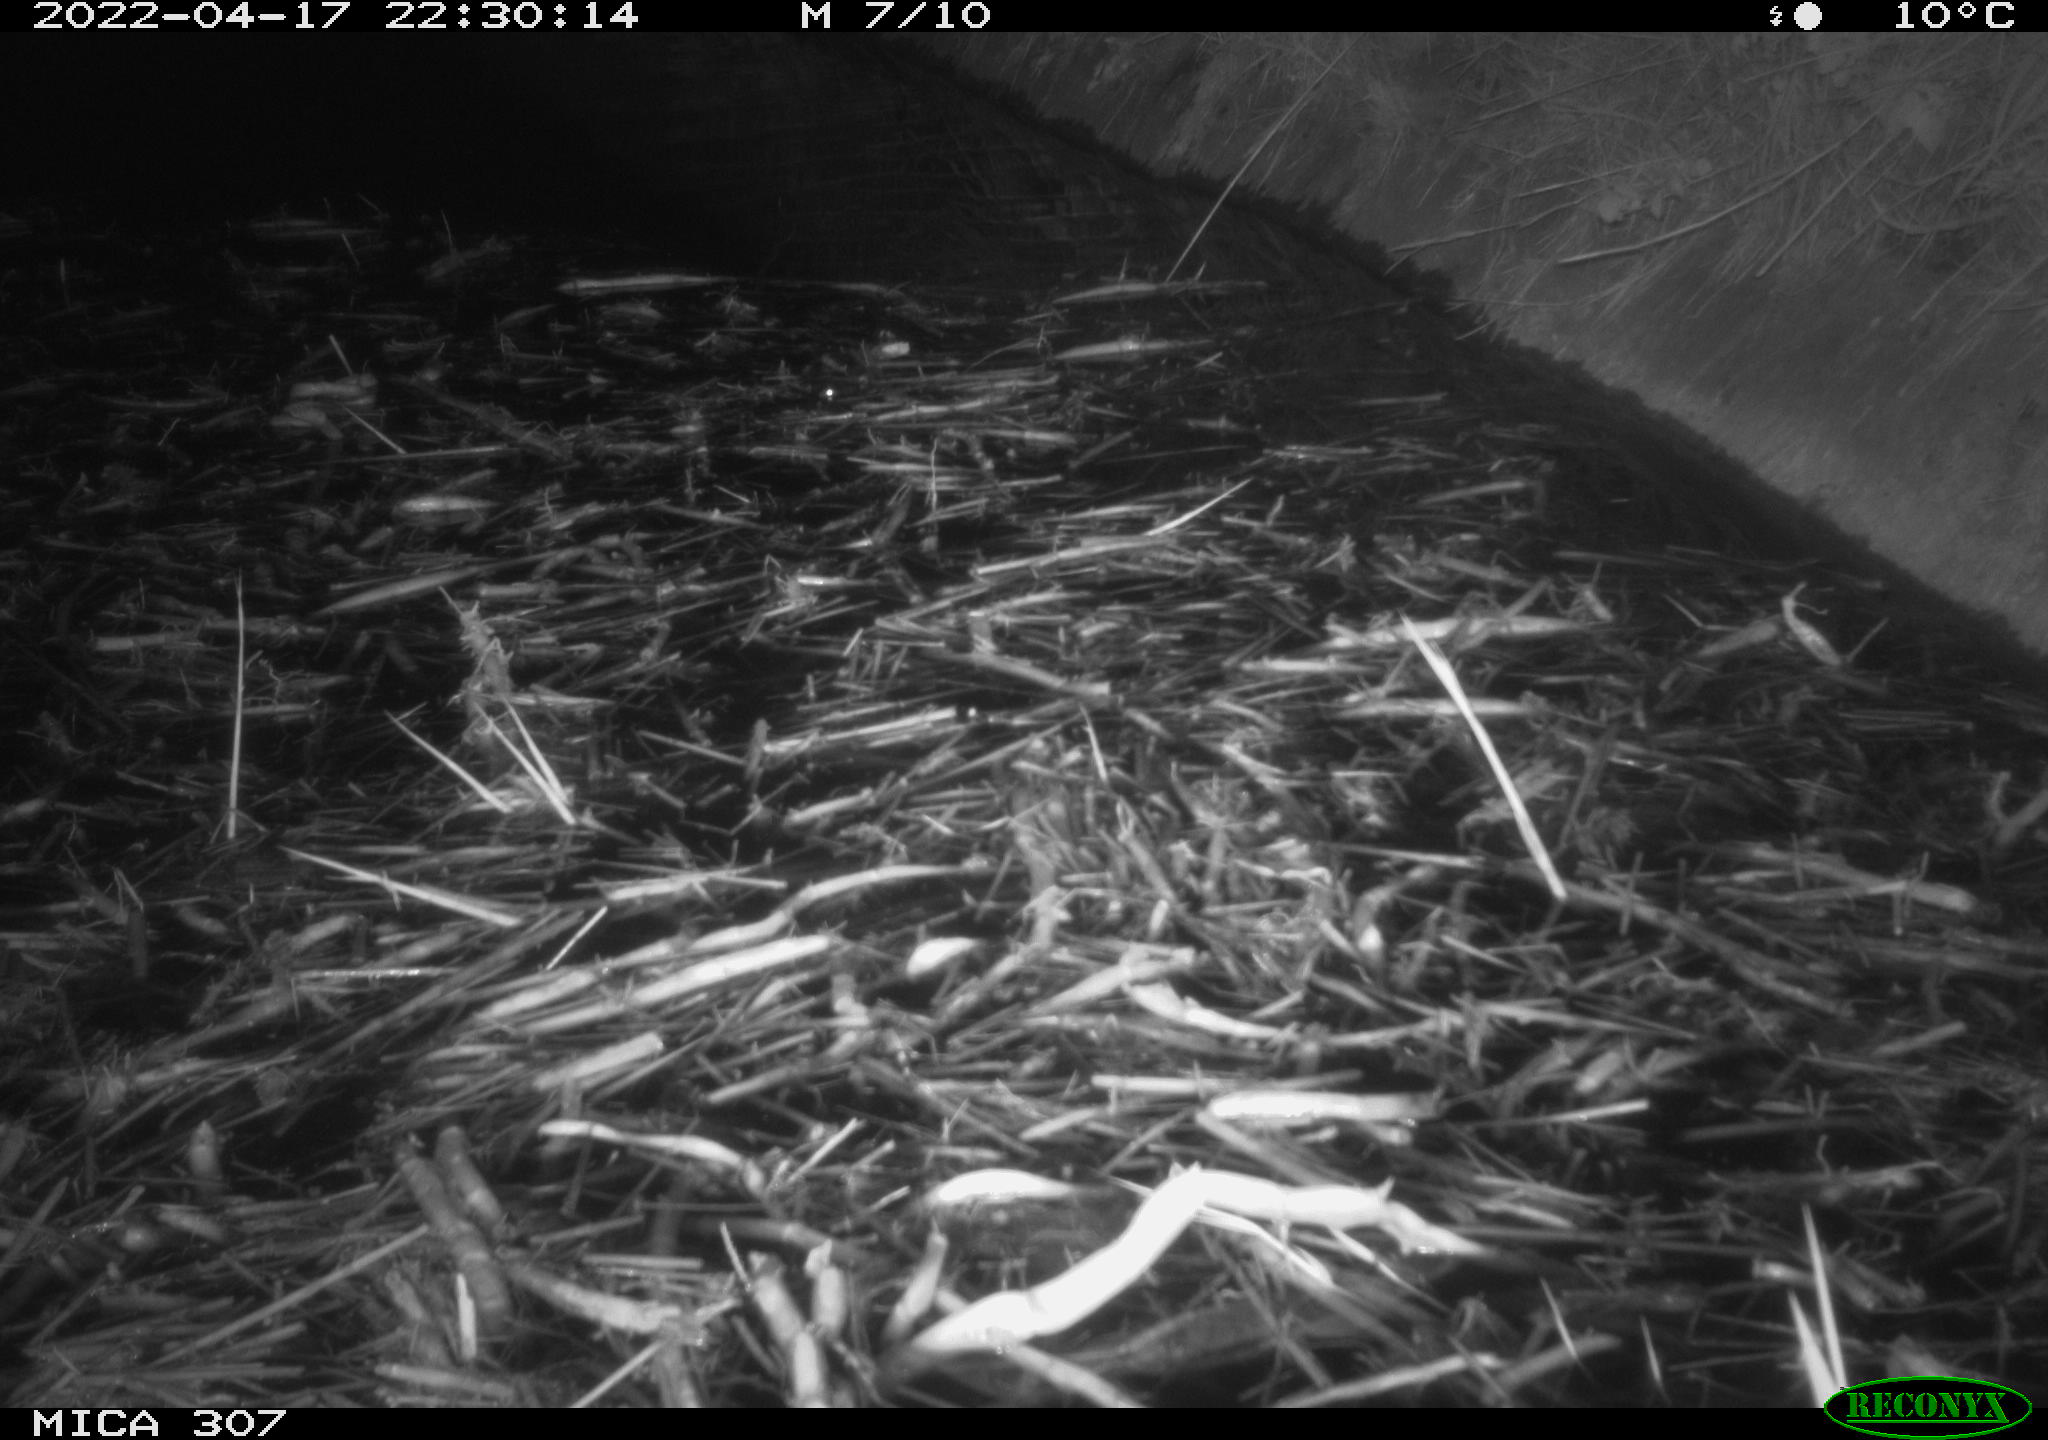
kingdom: Animalia
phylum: Chordata
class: Aves
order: Anseriformes
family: Anatidae
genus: Anas
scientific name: Anas platyrhynchos
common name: Mallard
